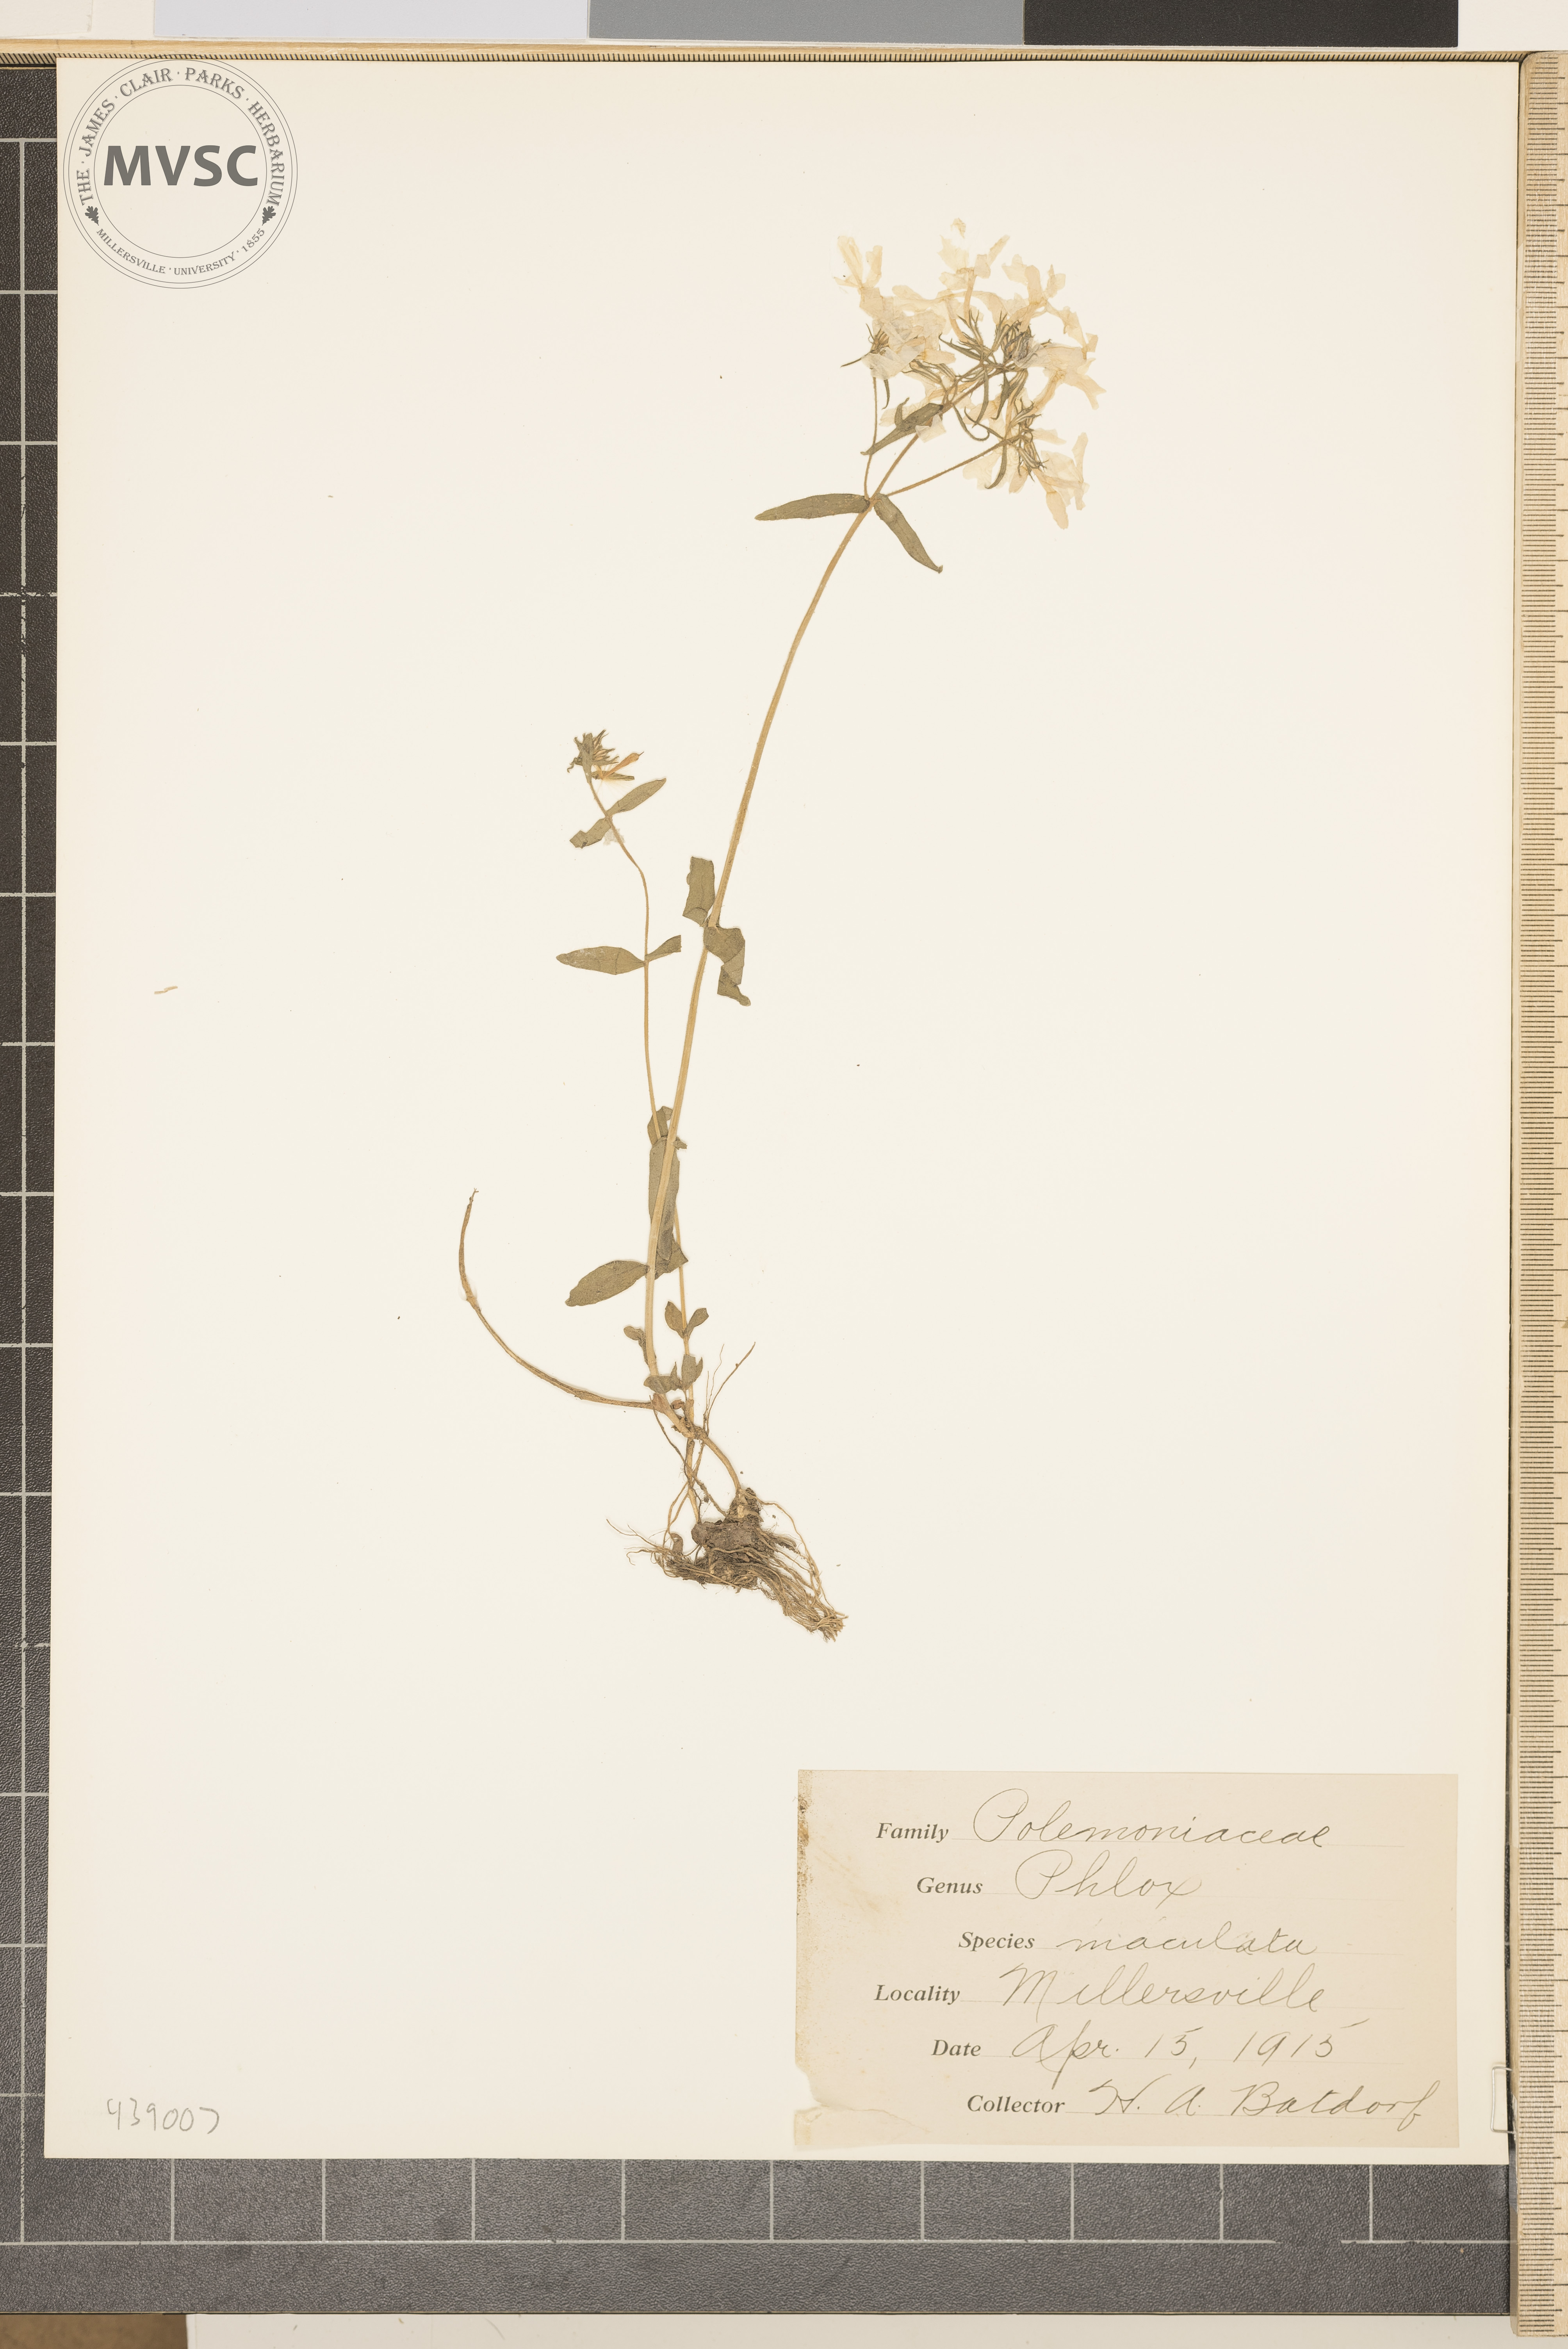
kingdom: Plantae
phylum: Tracheophyta
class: Magnoliopsida
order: Ericales
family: Polemoniaceae
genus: Phlox
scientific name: Phlox maculata
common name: Meadow phlox
